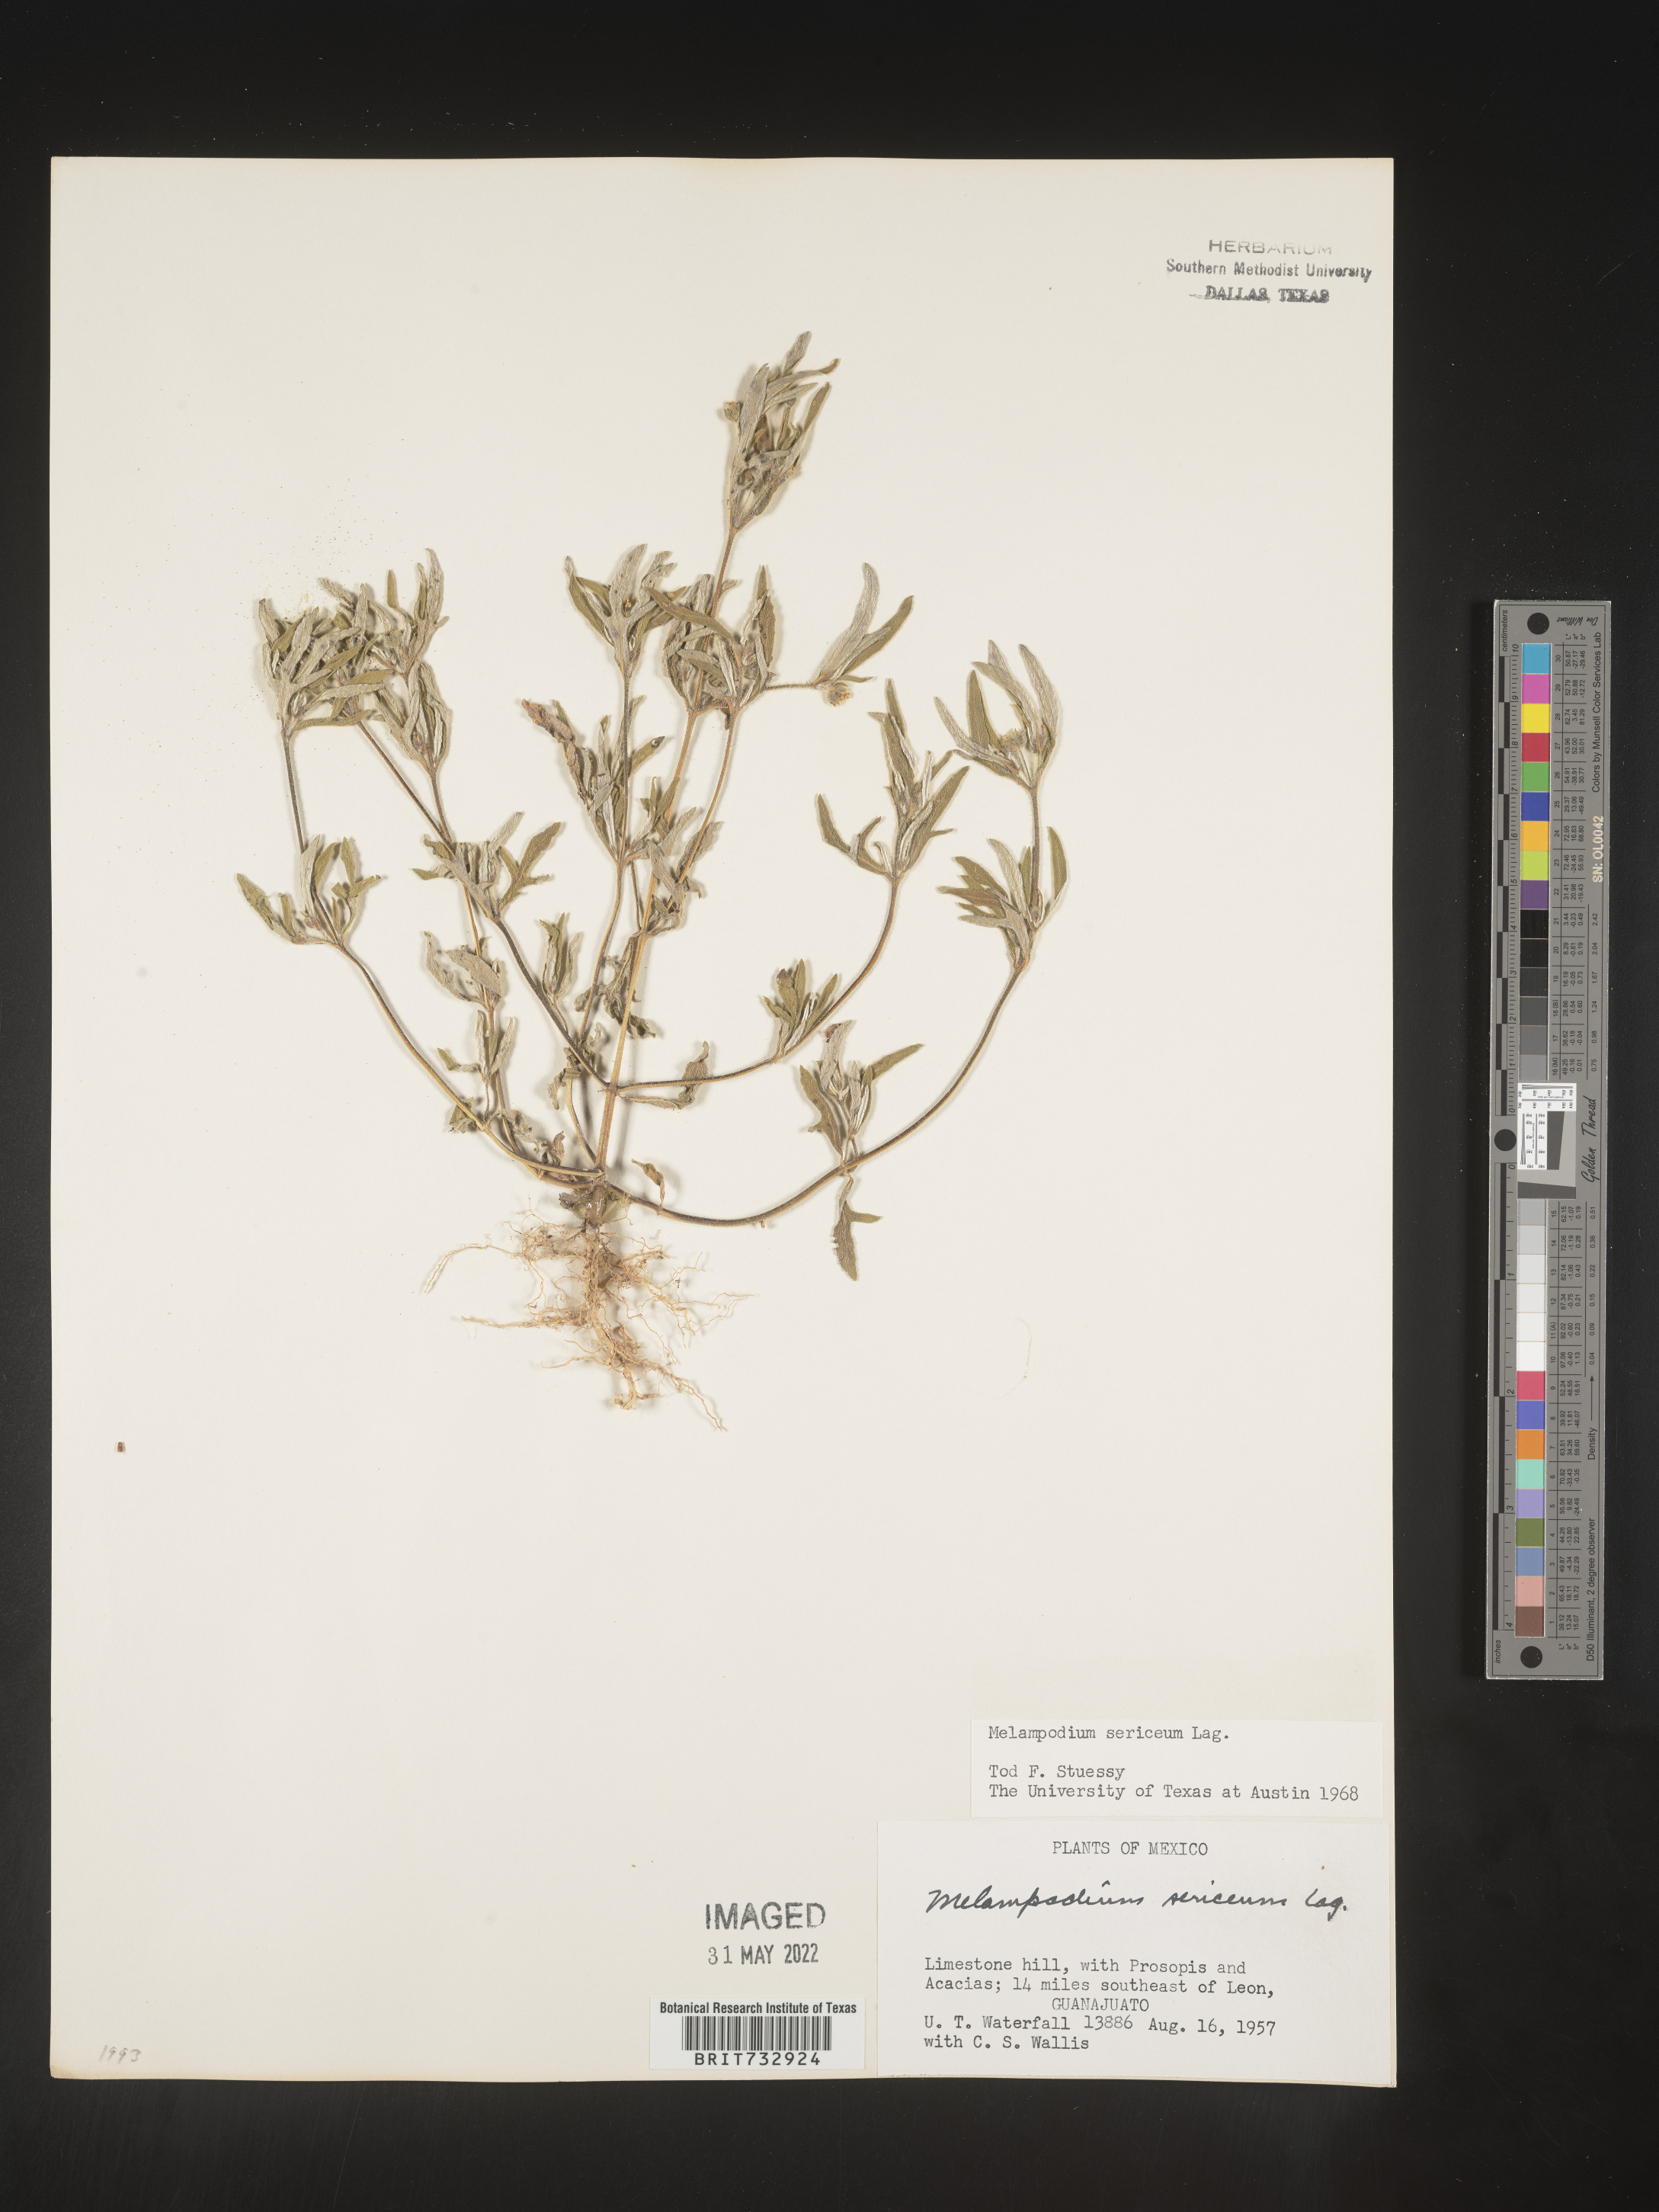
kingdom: Plantae
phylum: Tracheophyta
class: Magnoliopsida
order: Asterales
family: Asteraceae
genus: Melampodium
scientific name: Melampodium
